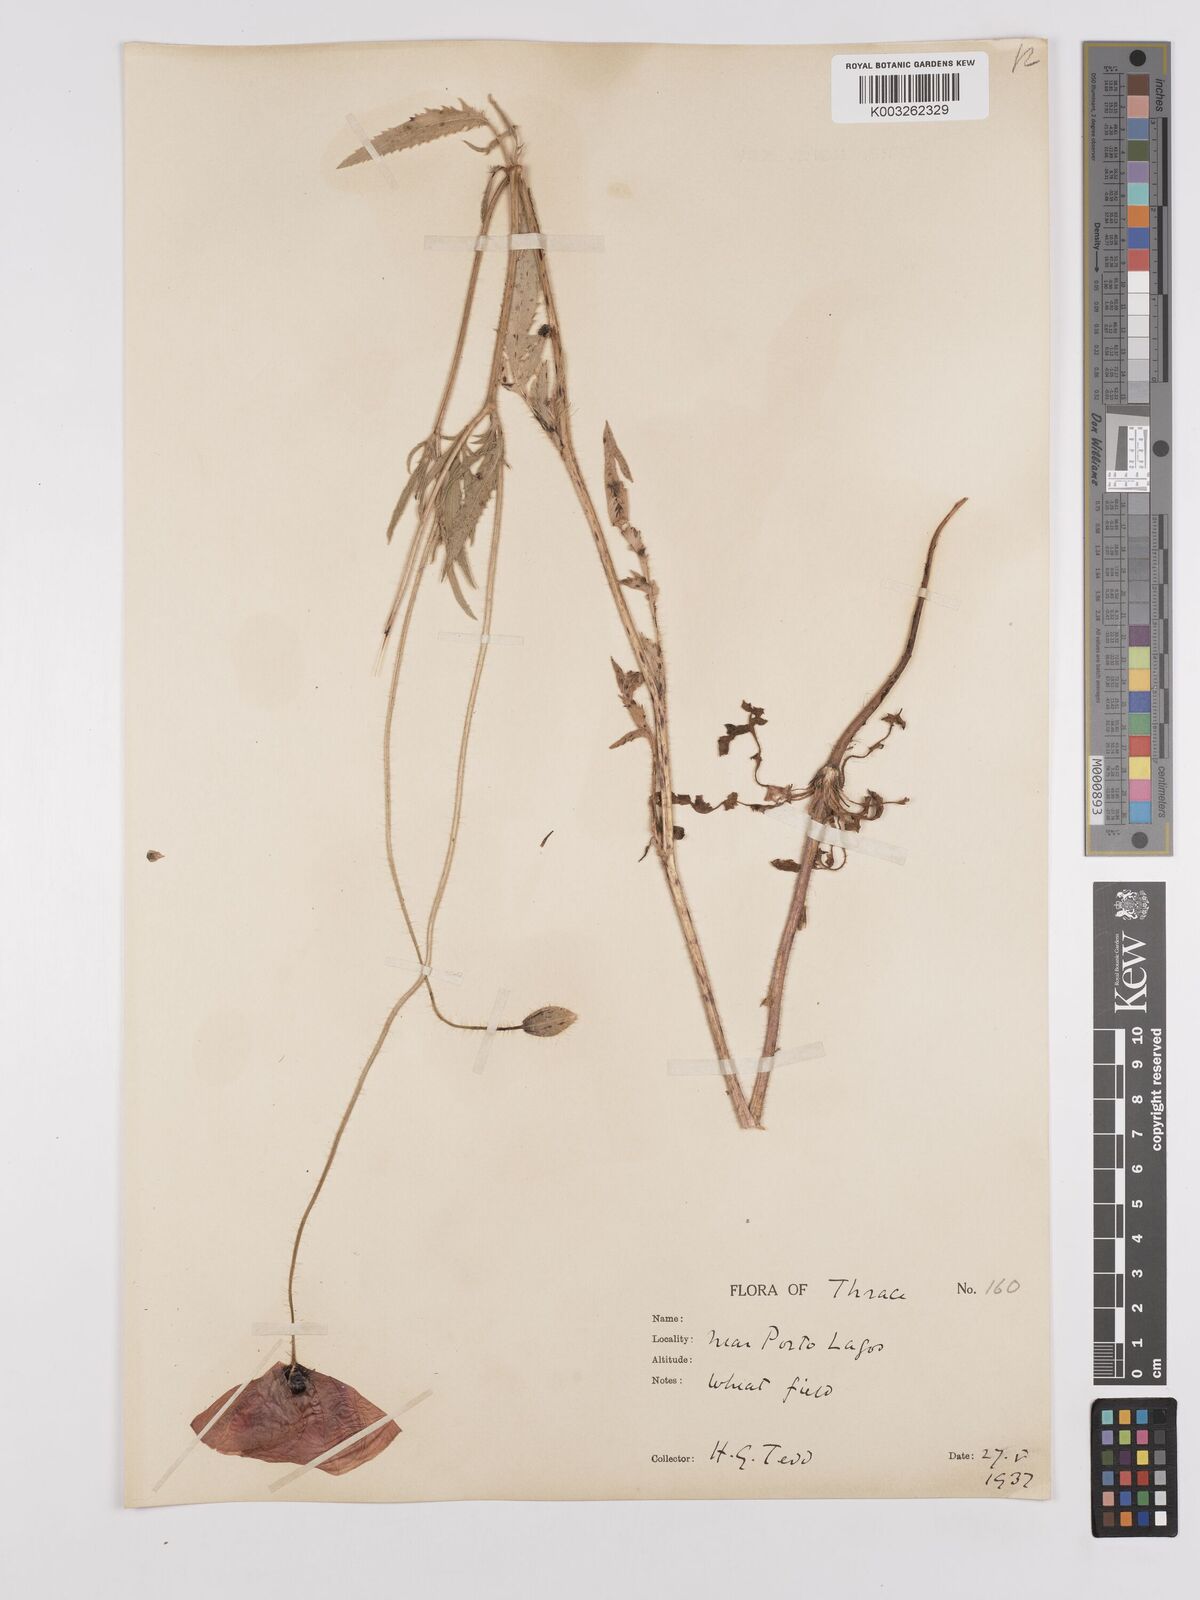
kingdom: Plantae
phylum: Tracheophyta
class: Magnoliopsida
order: Ranunculales
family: Papaveraceae
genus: Papaver
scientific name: Papaver rhoeas
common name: Corn poppy
